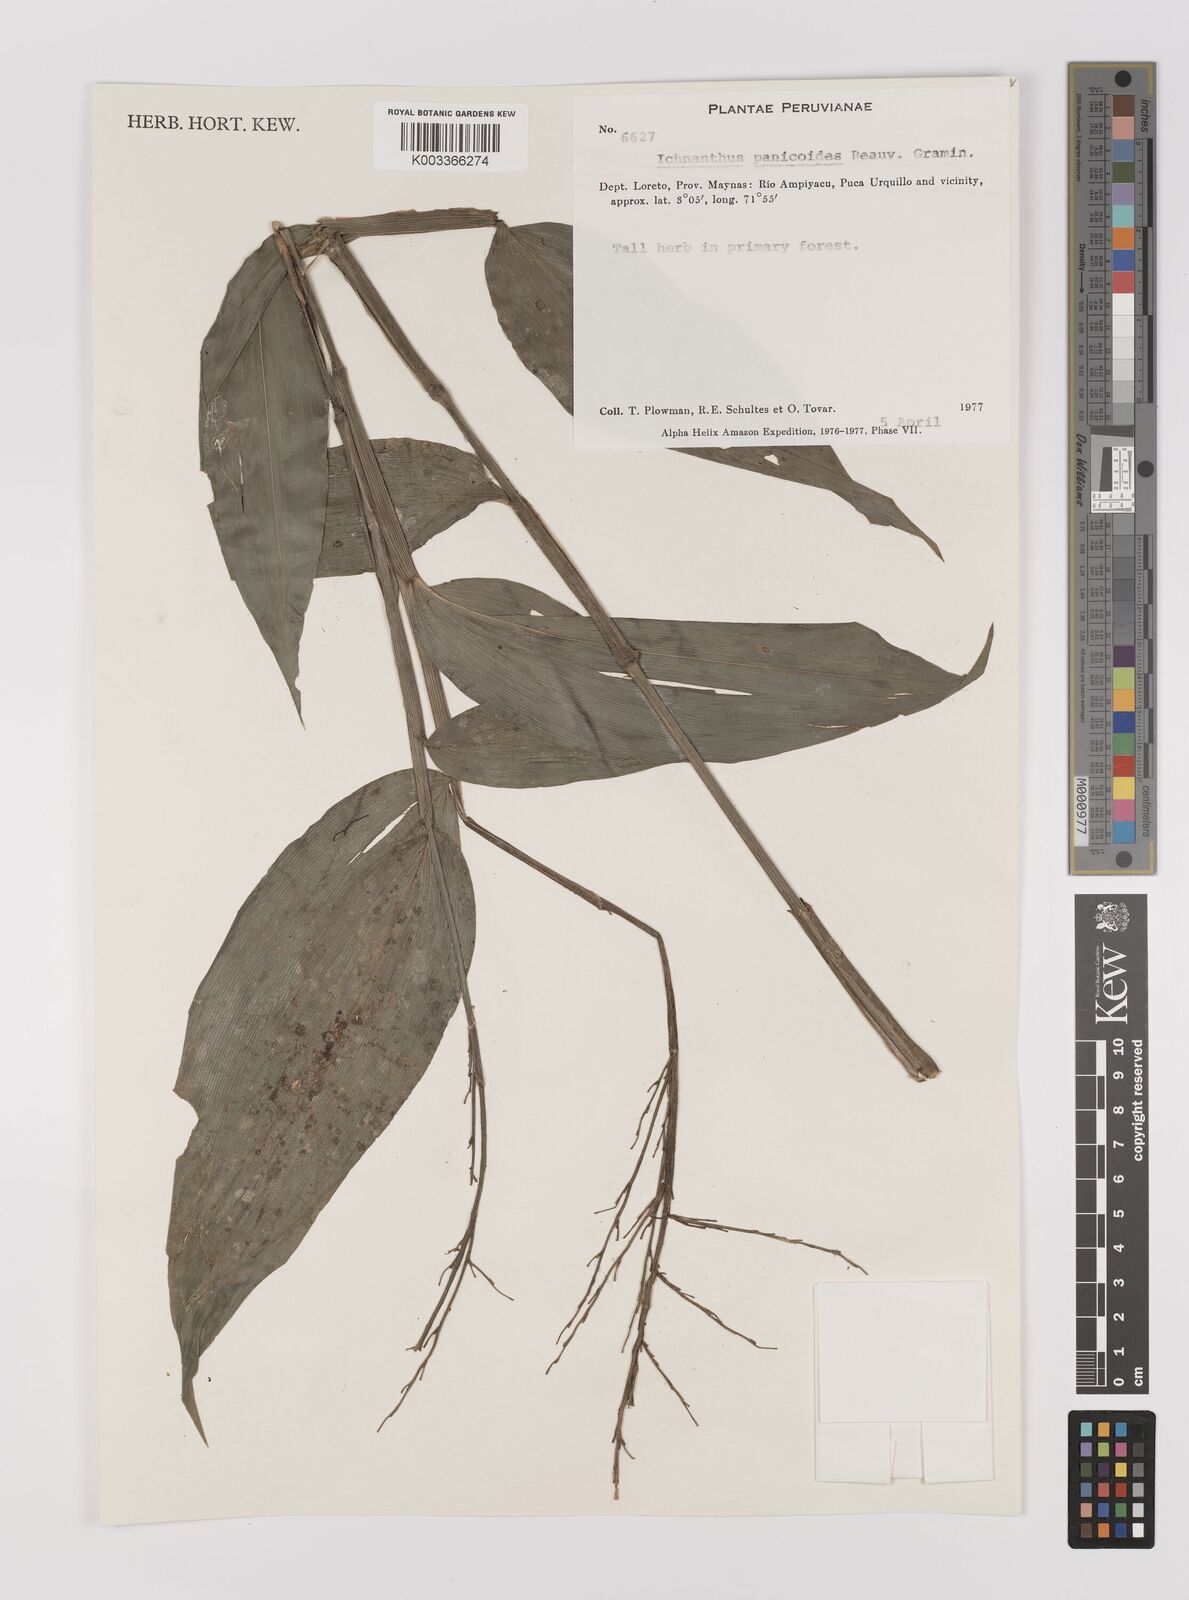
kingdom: Plantae
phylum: Tracheophyta
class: Liliopsida
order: Poales
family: Poaceae
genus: Ichnanthus
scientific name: Ichnanthus panicoides
